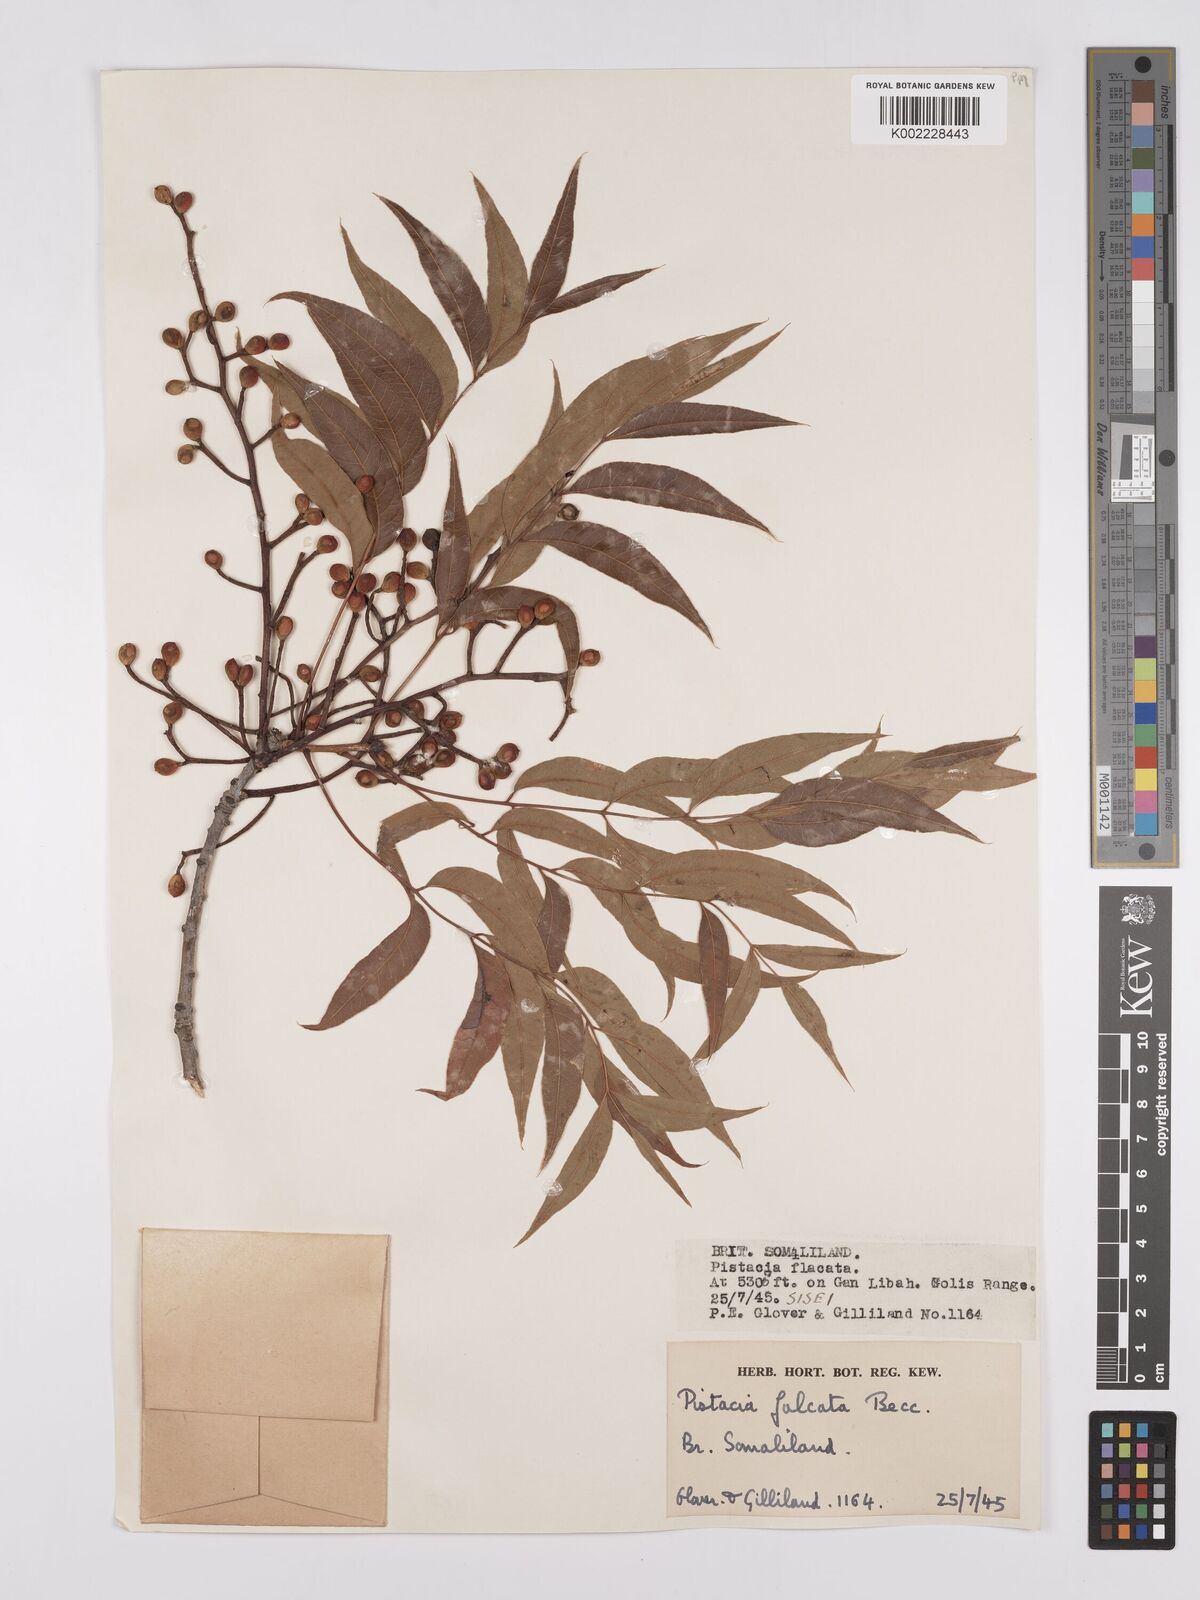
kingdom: Plantae
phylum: Tracheophyta
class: Magnoliopsida
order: Sapindales
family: Anacardiaceae
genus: Pistacia
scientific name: Pistacia falcata
